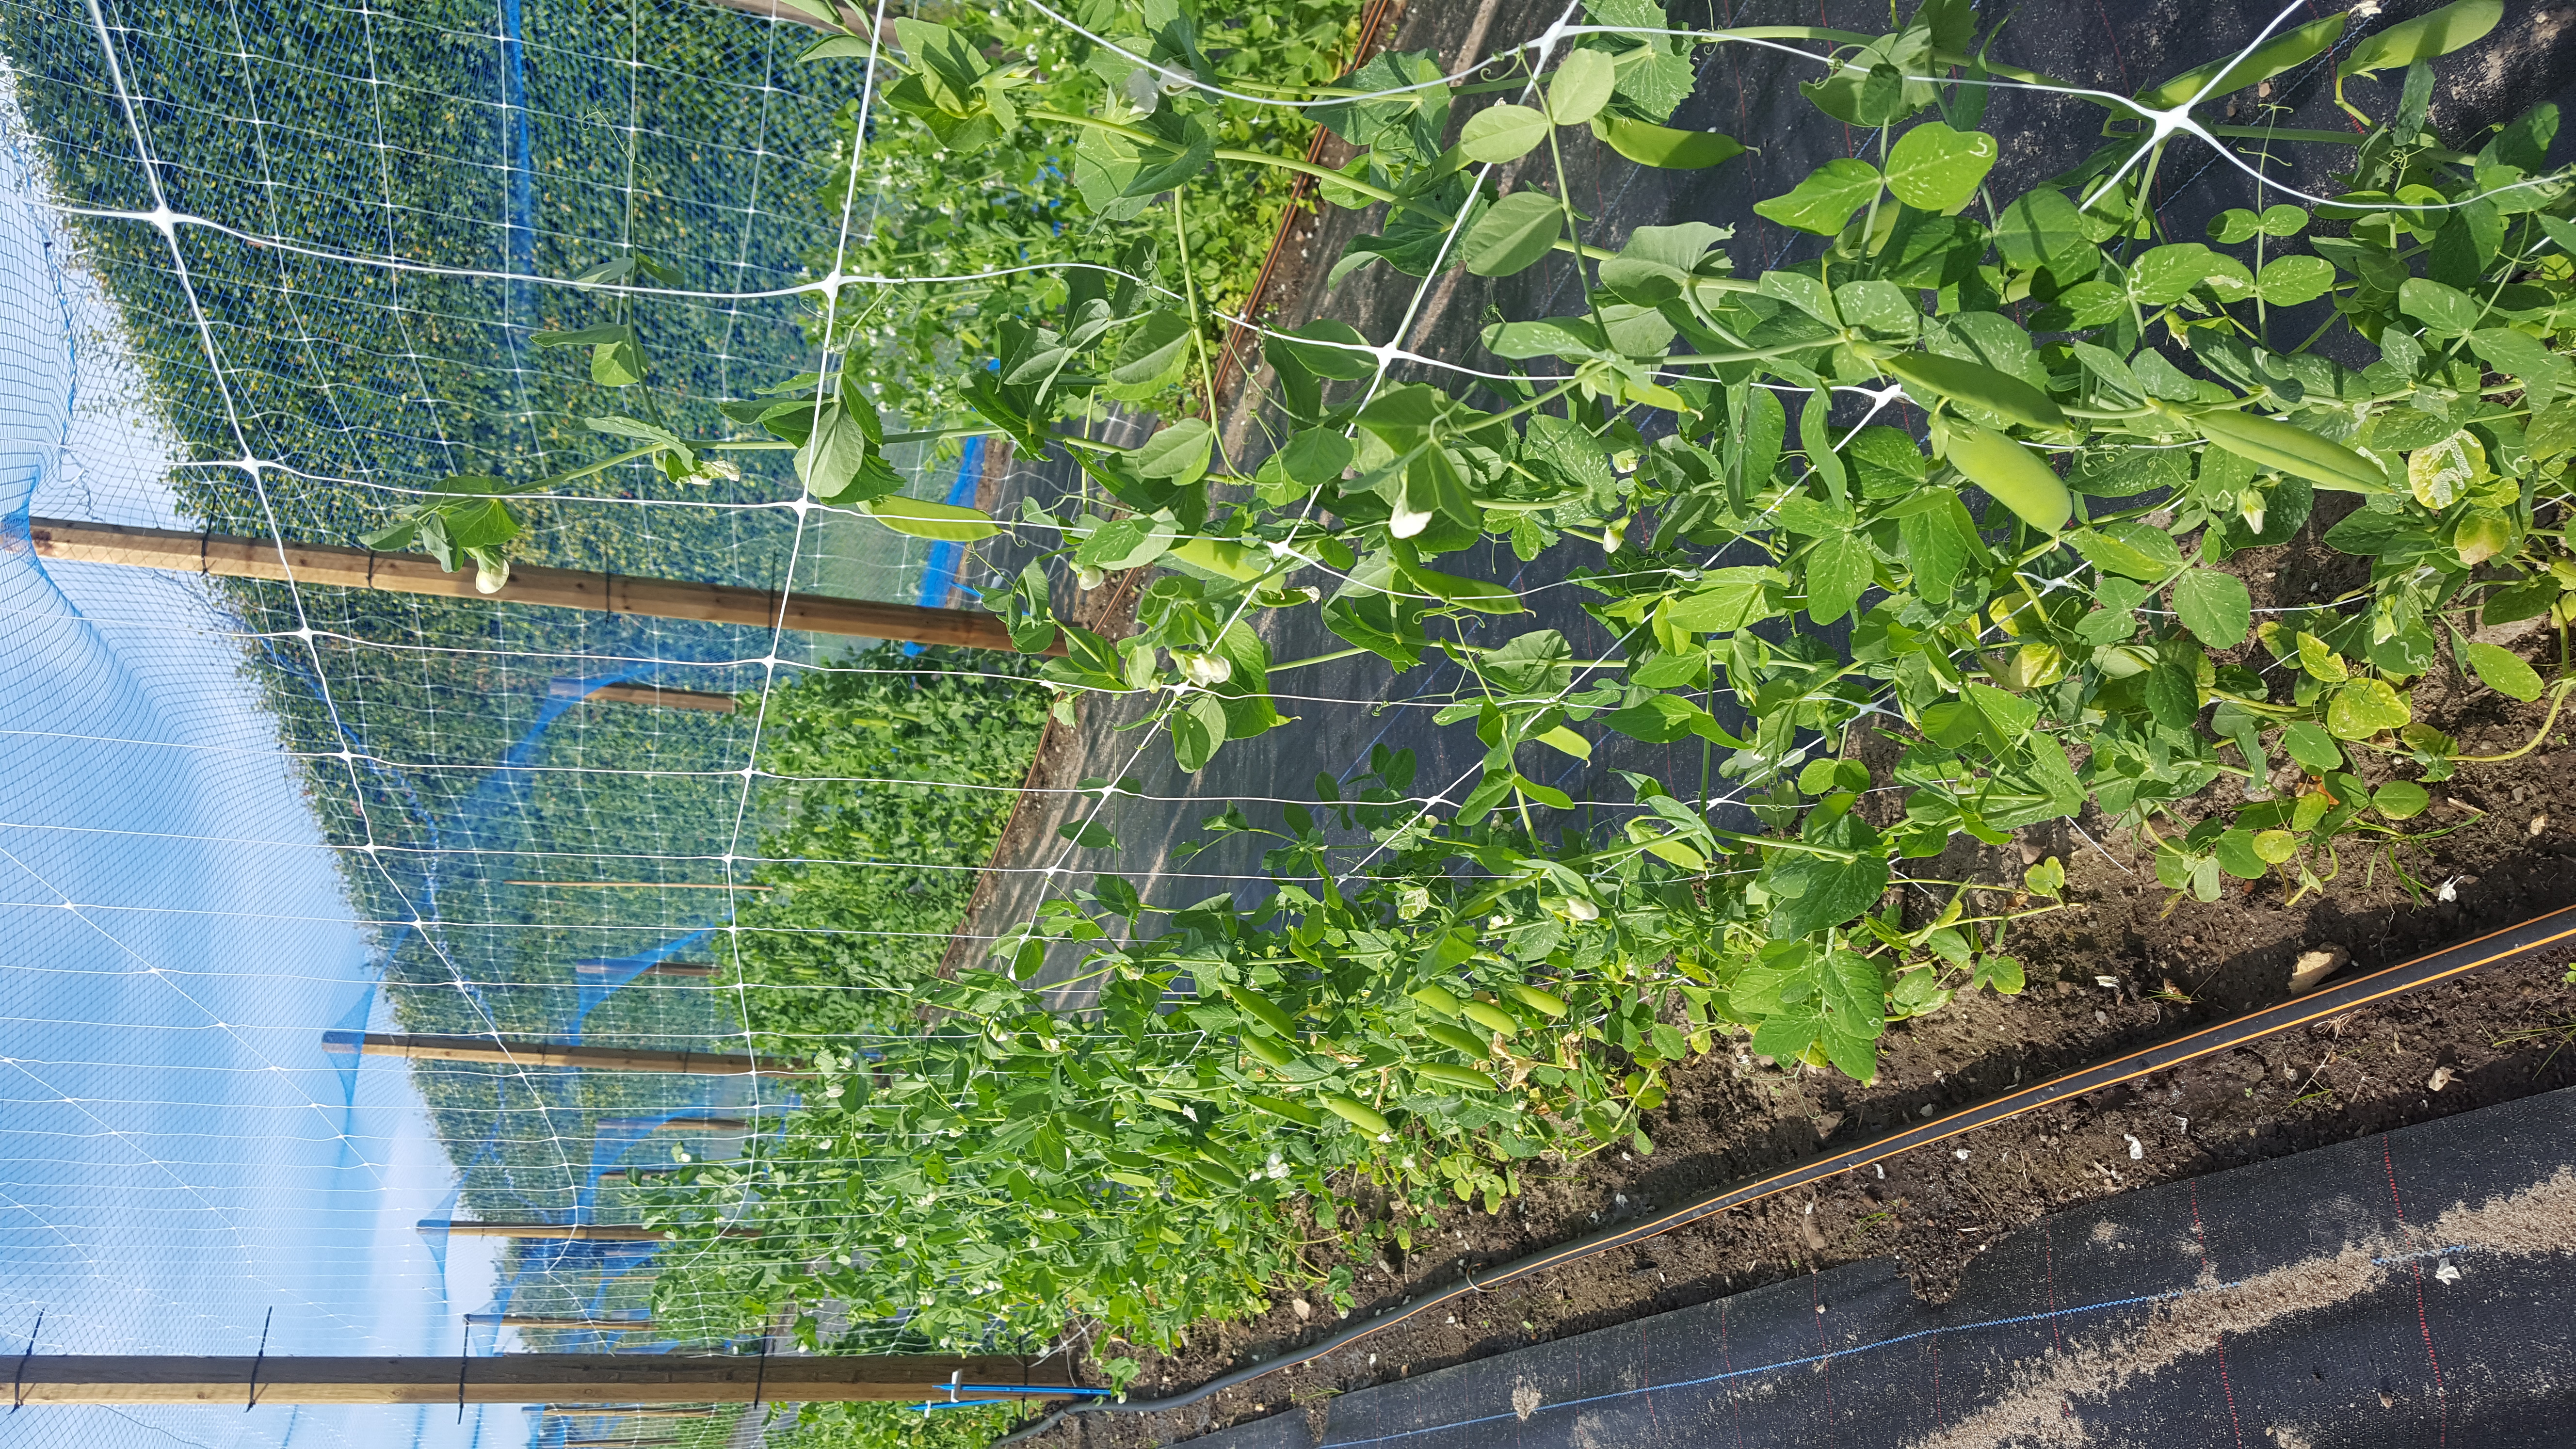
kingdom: Plantae
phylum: Tracheophyta
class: Magnoliopsida
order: Fabales
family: Fabaceae
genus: Lathyrus
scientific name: Lathyrus oleraceus
